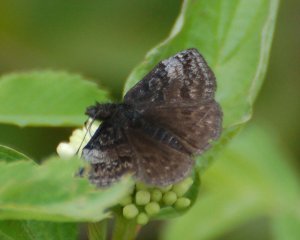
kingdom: Animalia
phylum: Arthropoda
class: Insecta
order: Lepidoptera
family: Hesperiidae
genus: Erynnis
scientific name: Erynnis icelus
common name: Dreamy Duskywing
